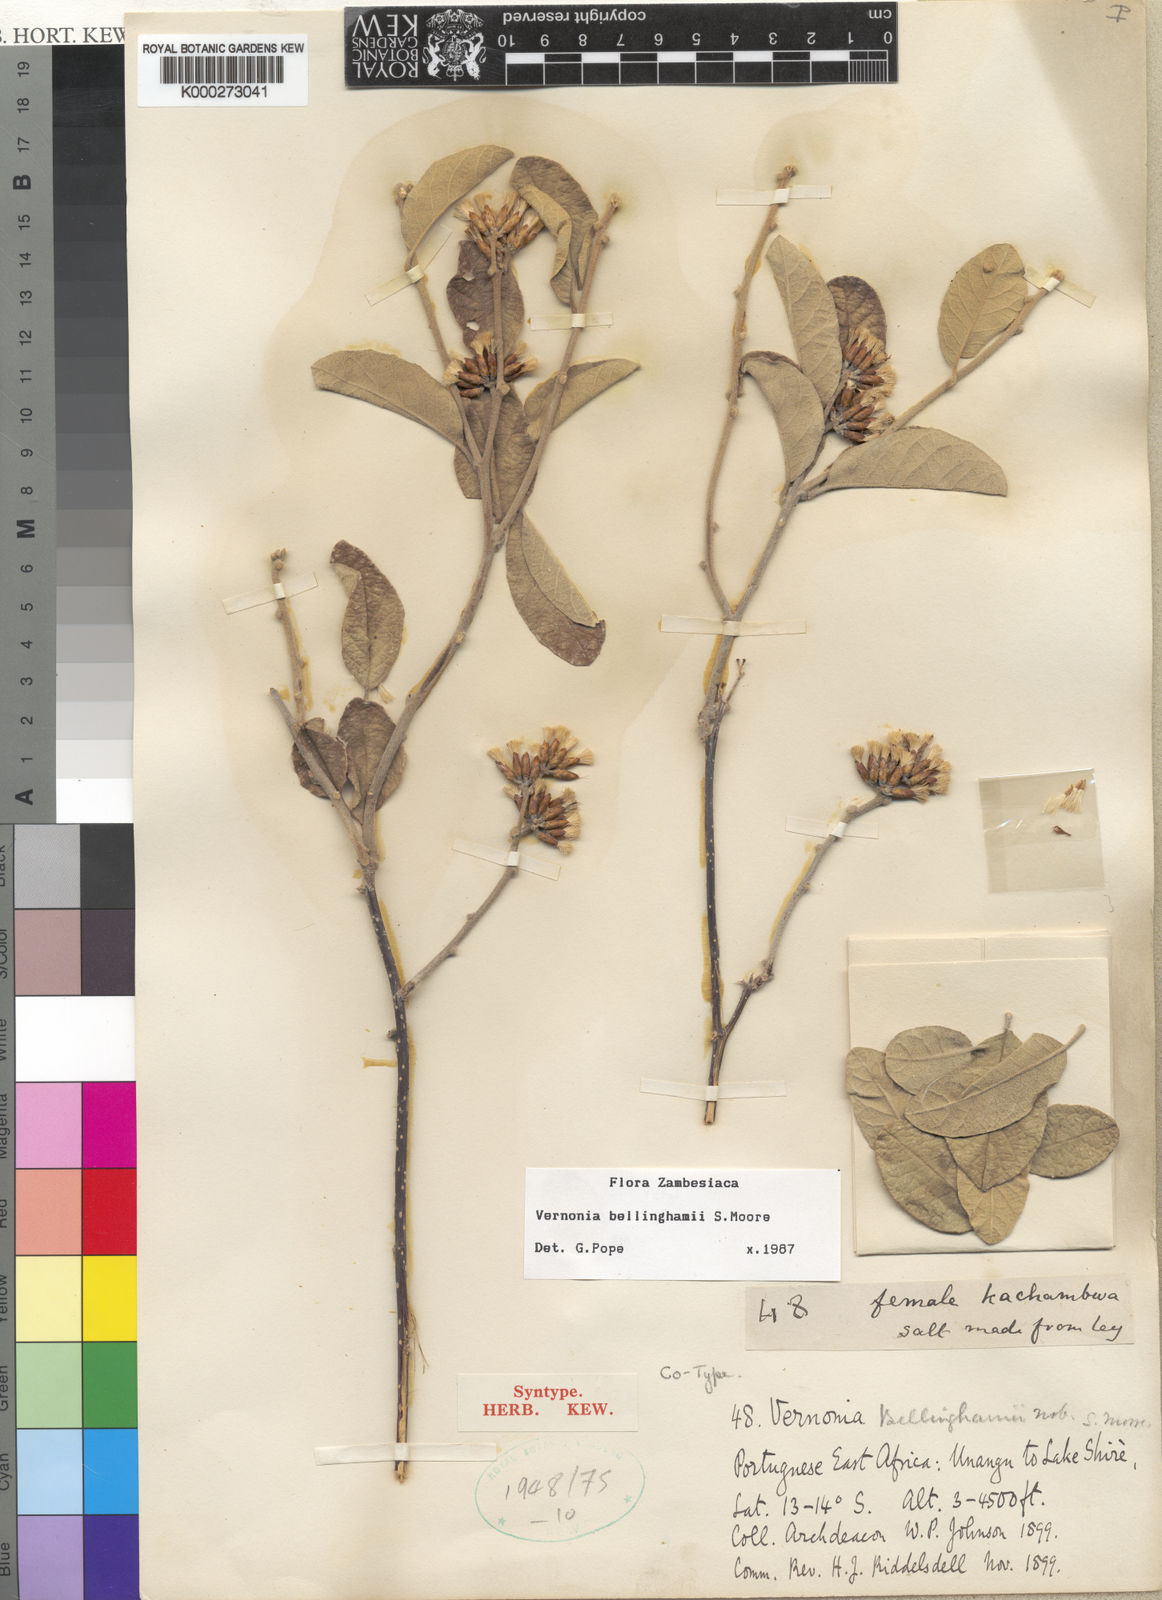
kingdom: Plantae
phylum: Tracheophyta
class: Magnoliopsida
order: Asterales
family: Asteraceae
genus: Gymnanthemum
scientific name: Gymnanthemum bellinghamii
